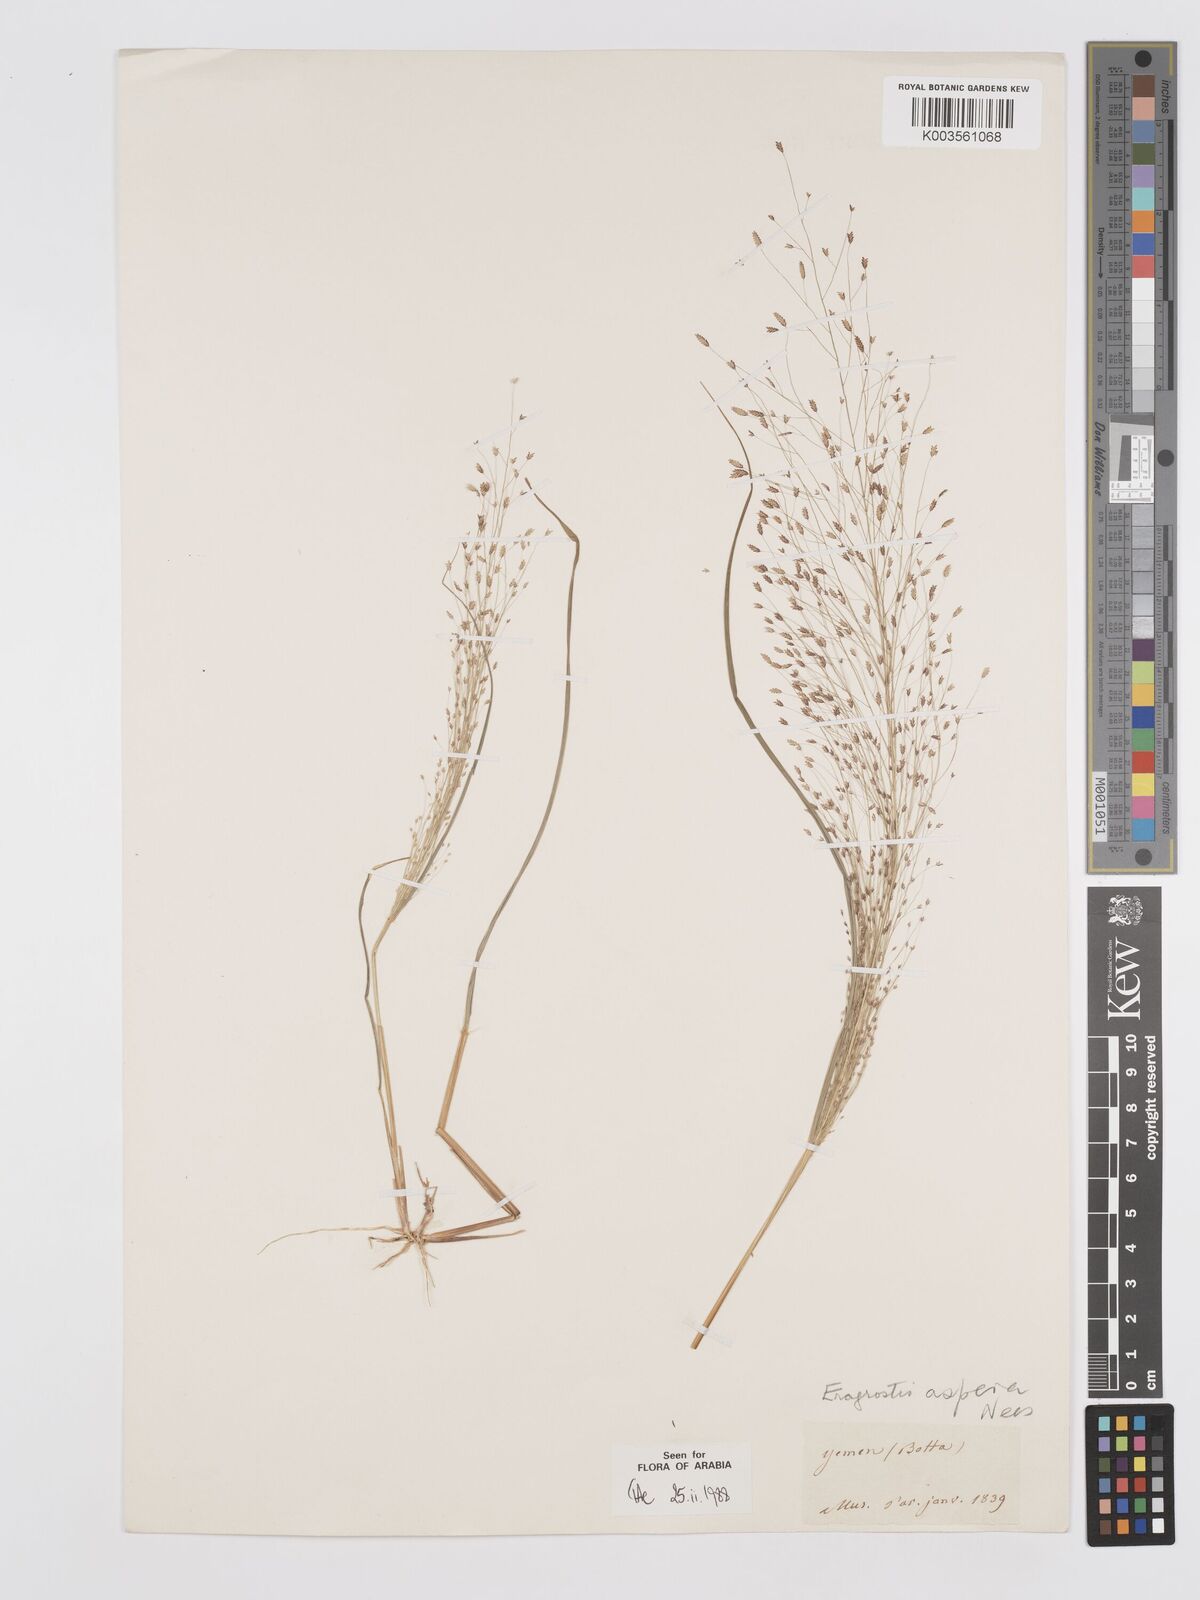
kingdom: Plantae
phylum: Tracheophyta
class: Liliopsida
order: Poales
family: Poaceae
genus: Eragrostis
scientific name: Eragrostis aspera
